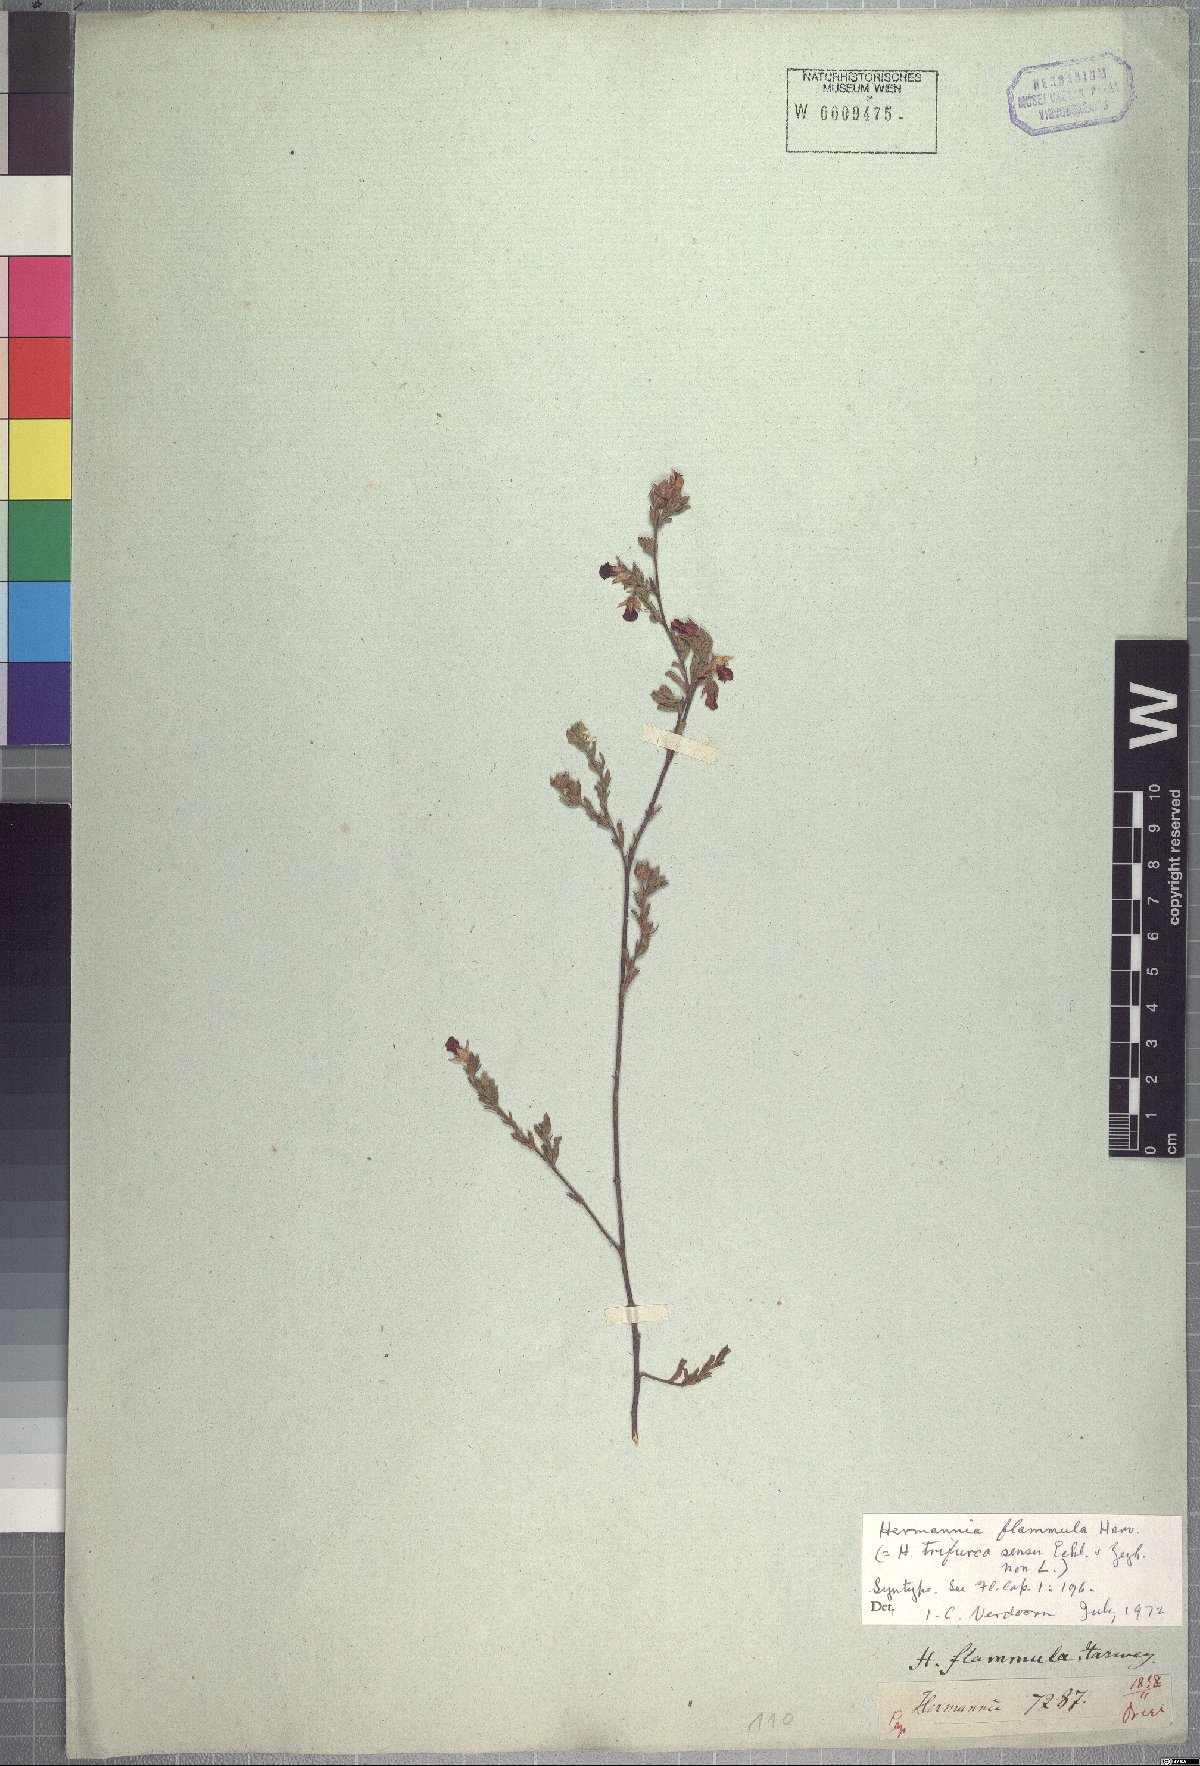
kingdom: Plantae
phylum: Tracheophyta
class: Magnoliopsida
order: Malvales
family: Malvaceae
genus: Hermannia
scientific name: Hermannia flammula
